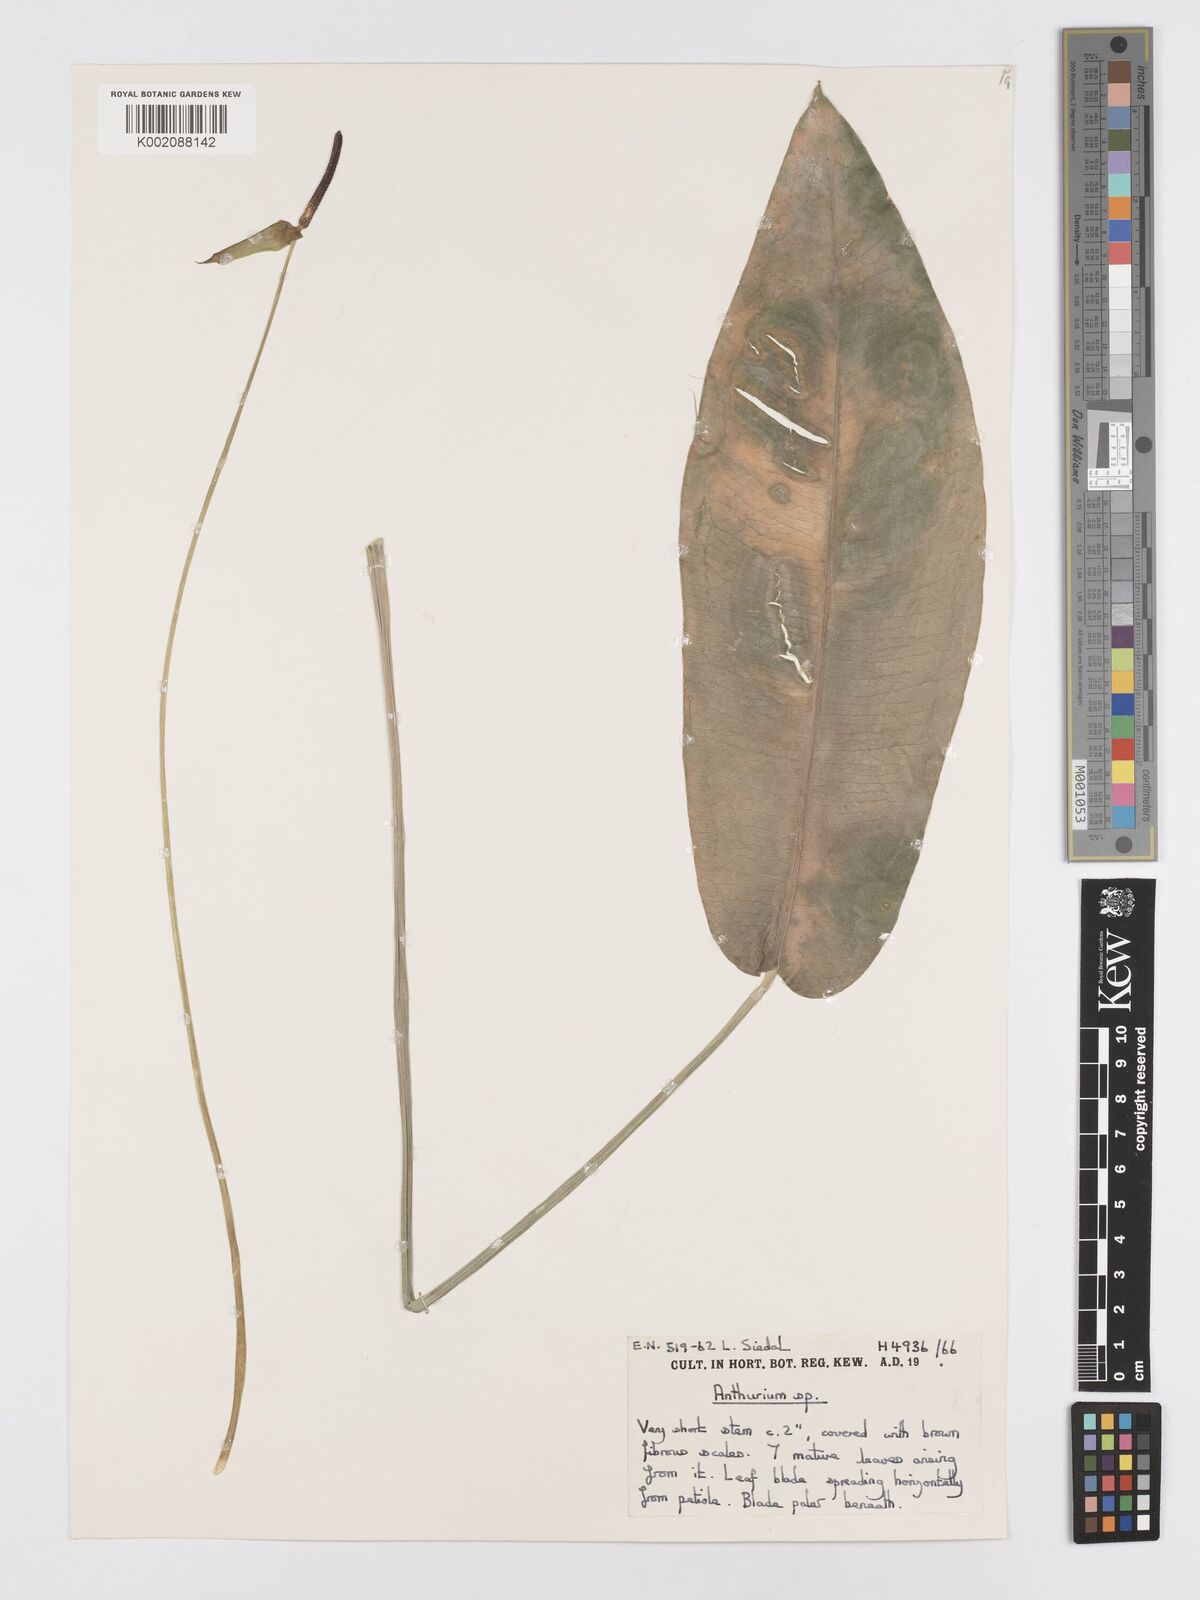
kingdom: Plantae
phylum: Tracheophyta
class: Liliopsida
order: Alismatales
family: Araceae
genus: Anthurium
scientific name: Anthurium
